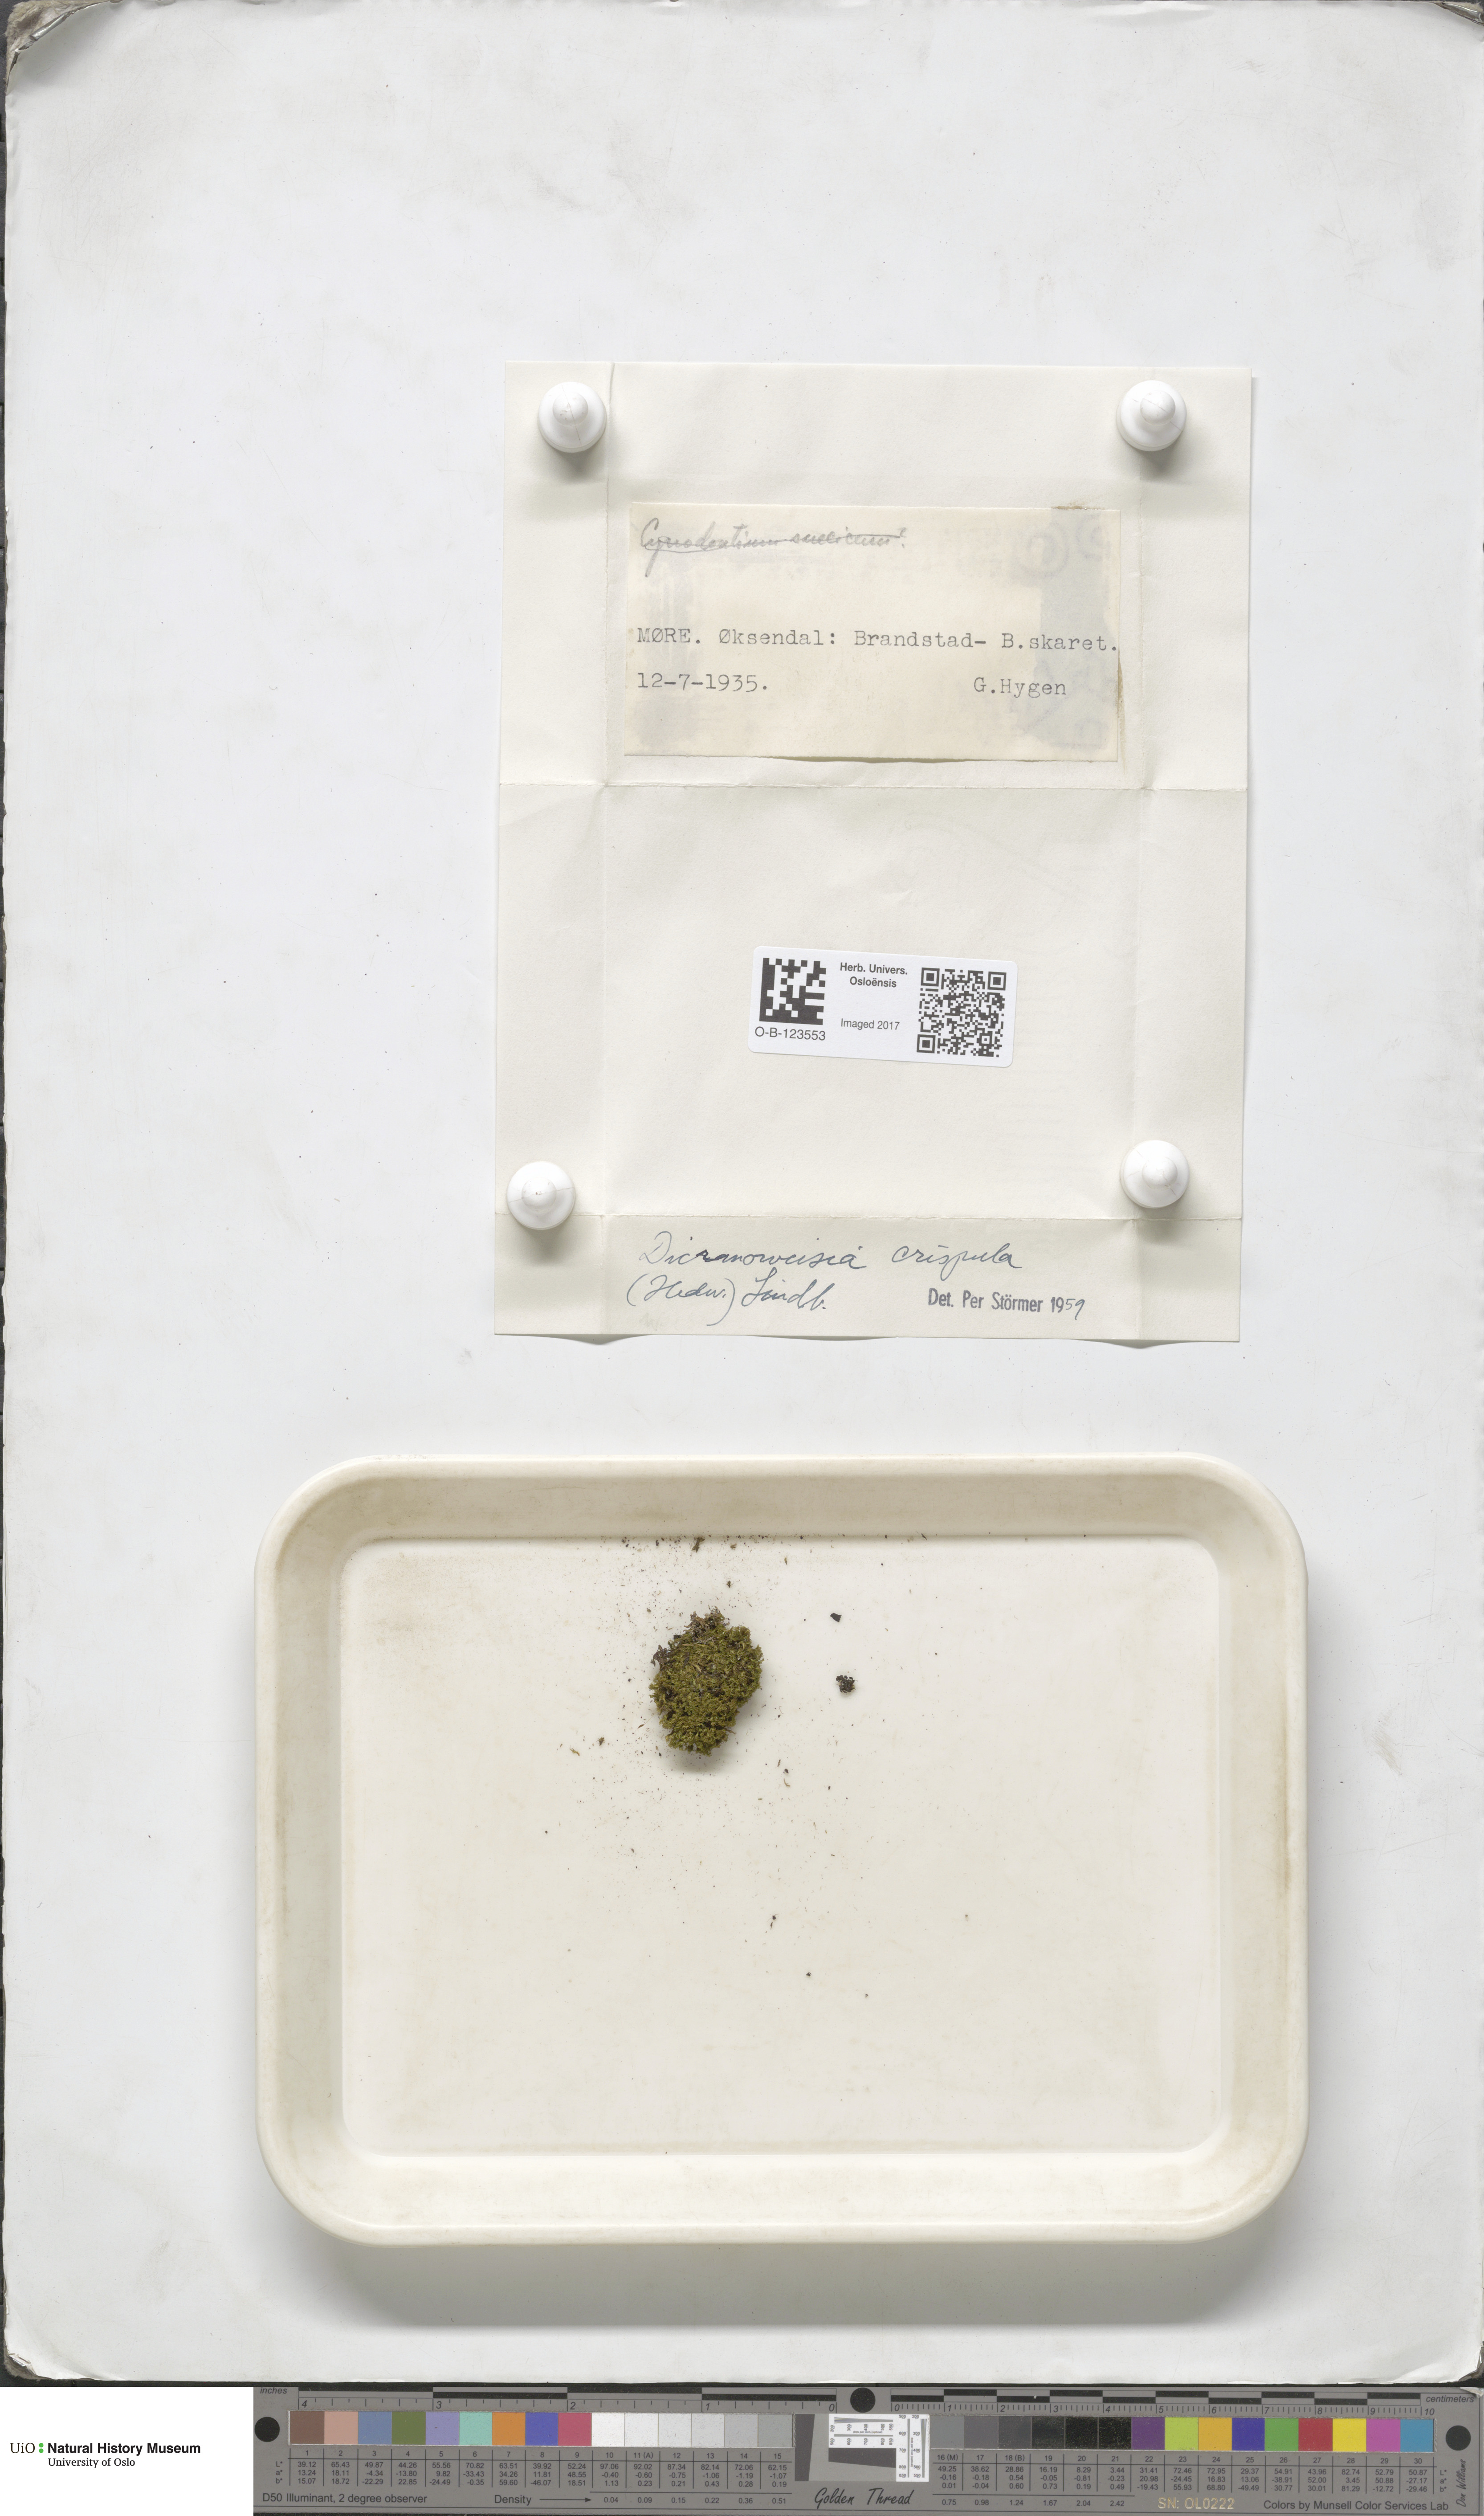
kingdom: Plantae
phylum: Bryophyta
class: Bryopsida
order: Scouleriales
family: Hymenolomataceae
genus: Hymenoloma
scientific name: Hymenoloma crispulum
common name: Mountain pincushion
